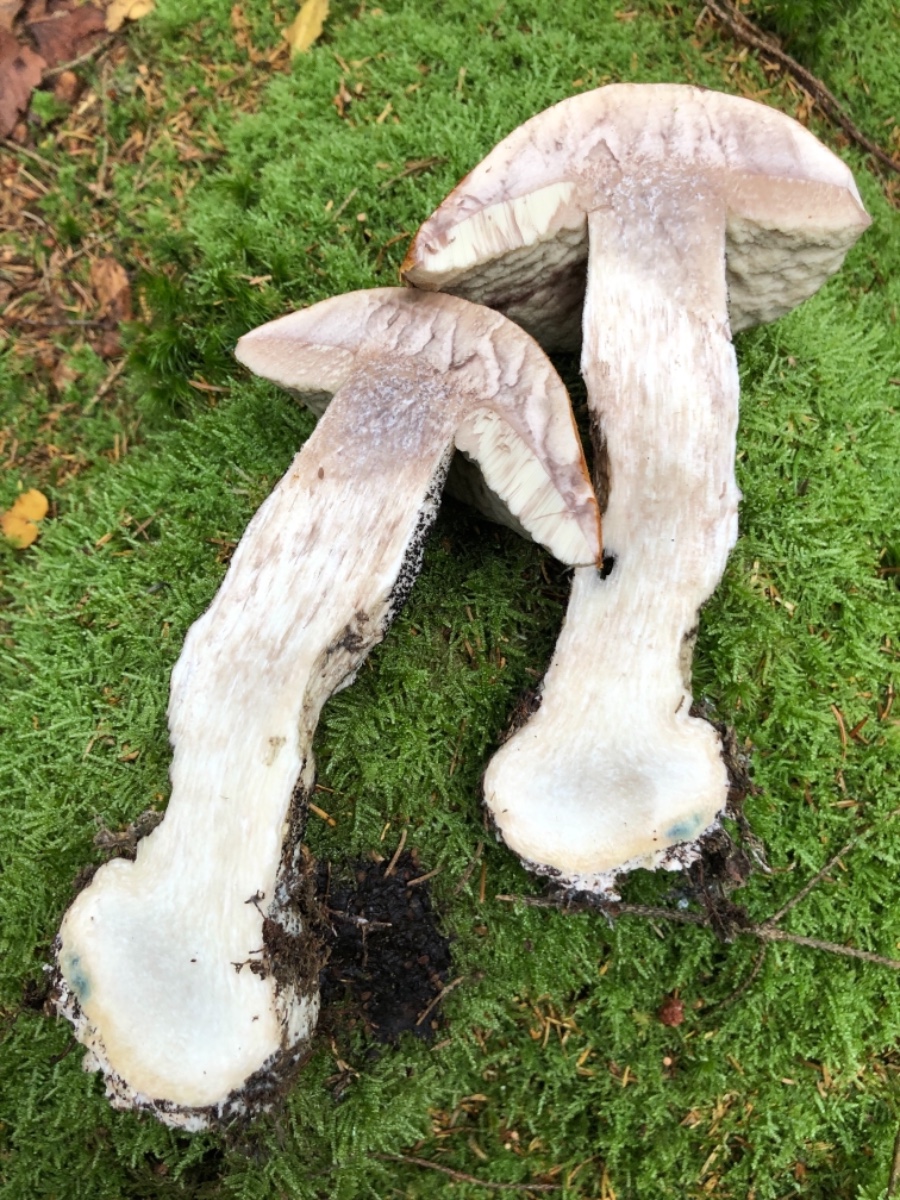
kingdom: Fungi
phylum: Basidiomycota
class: Agaricomycetes
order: Boletales
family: Boletaceae
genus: Leccinum
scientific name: Leccinum versipelle
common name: orange skælrørhat
